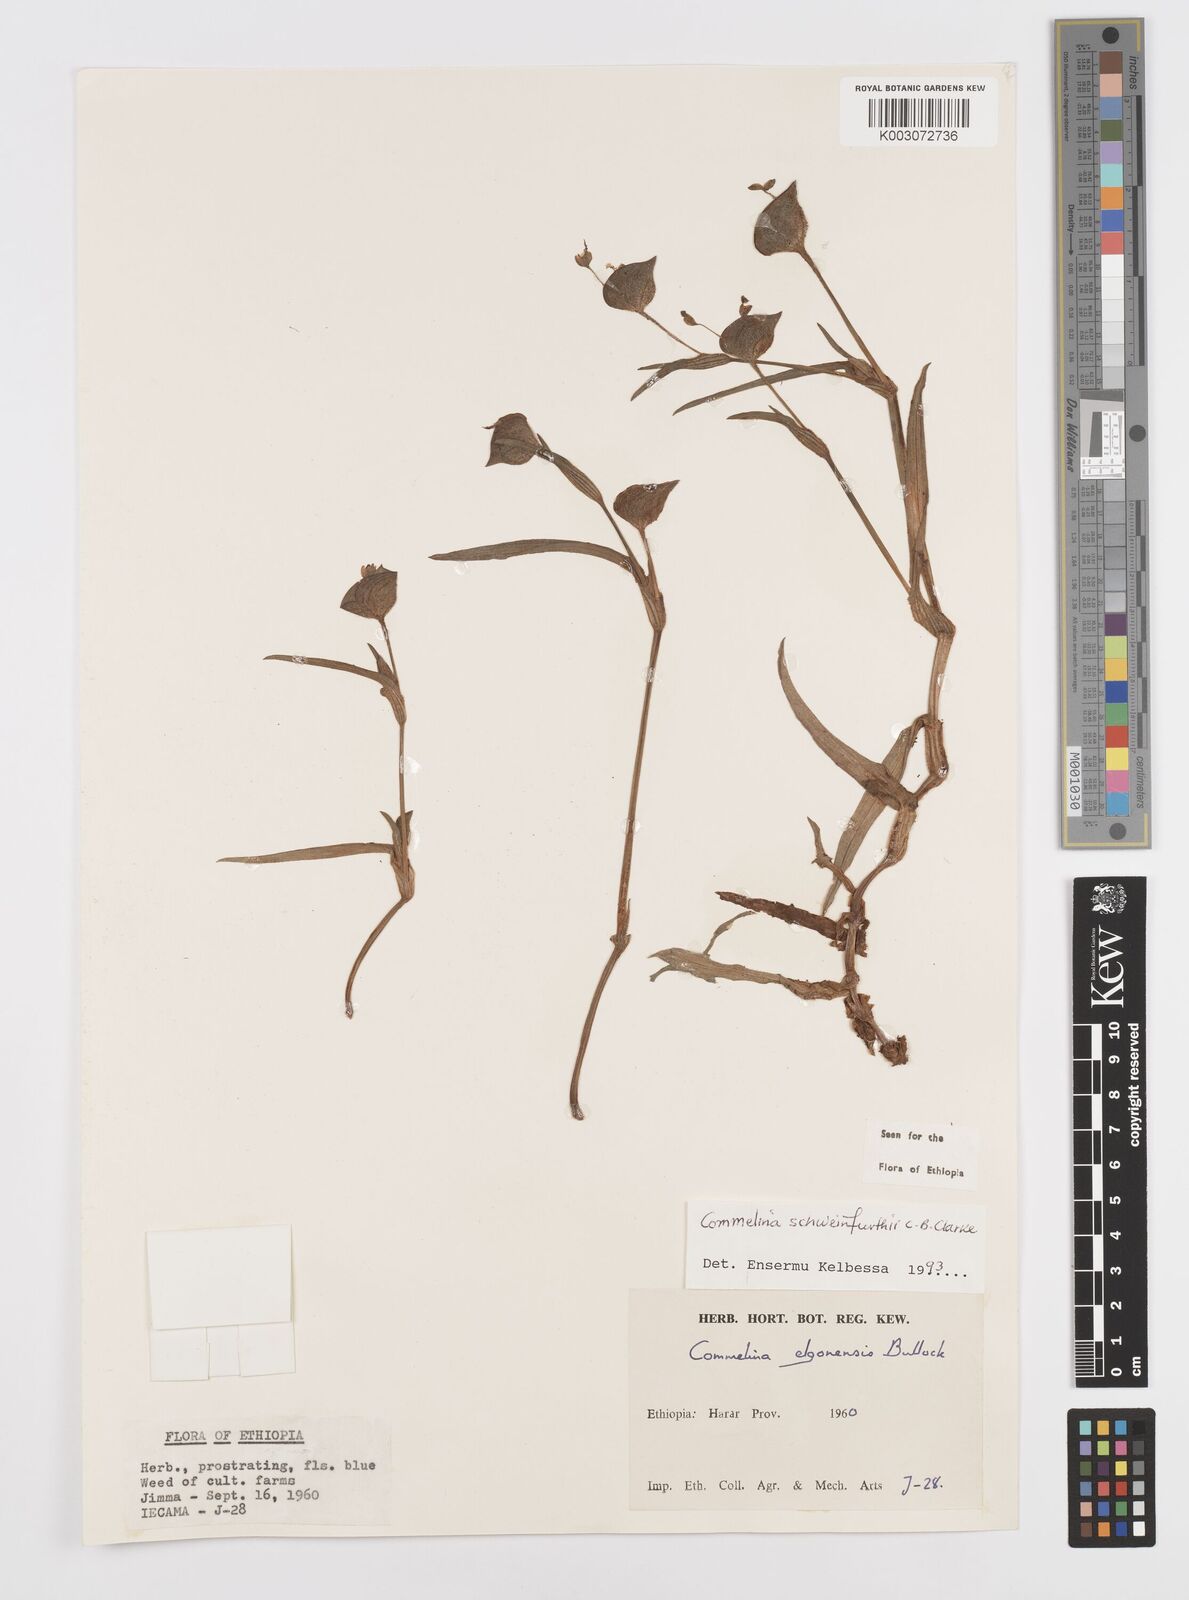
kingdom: Plantae
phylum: Tracheophyta
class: Liliopsida
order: Commelinales
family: Commelinaceae
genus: Commelina
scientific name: Commelina schweinfurthii
